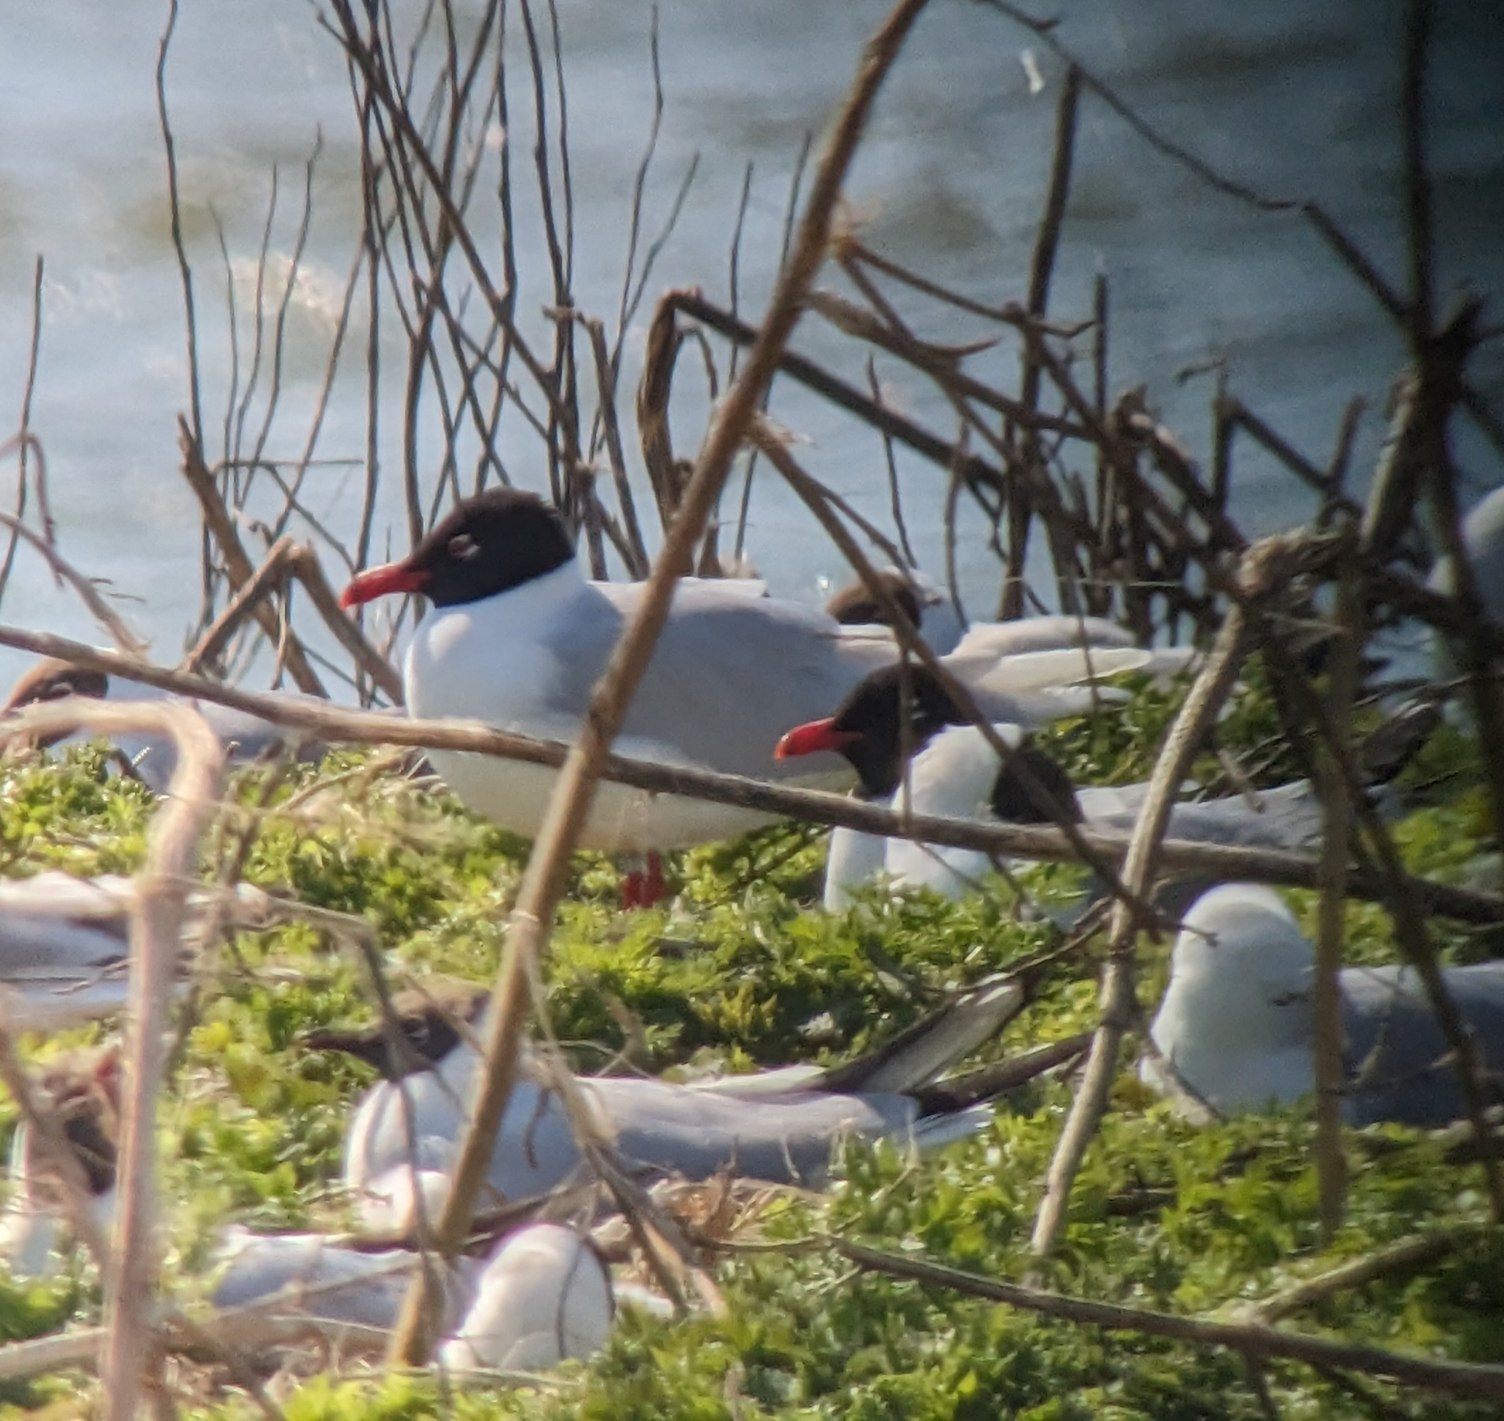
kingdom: Animalia
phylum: Chordata
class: Aves
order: Charadriiformes
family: Laridae
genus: Ichthyaetus
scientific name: Ichthyaetus melanocephalus
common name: Sorthovedet måge
